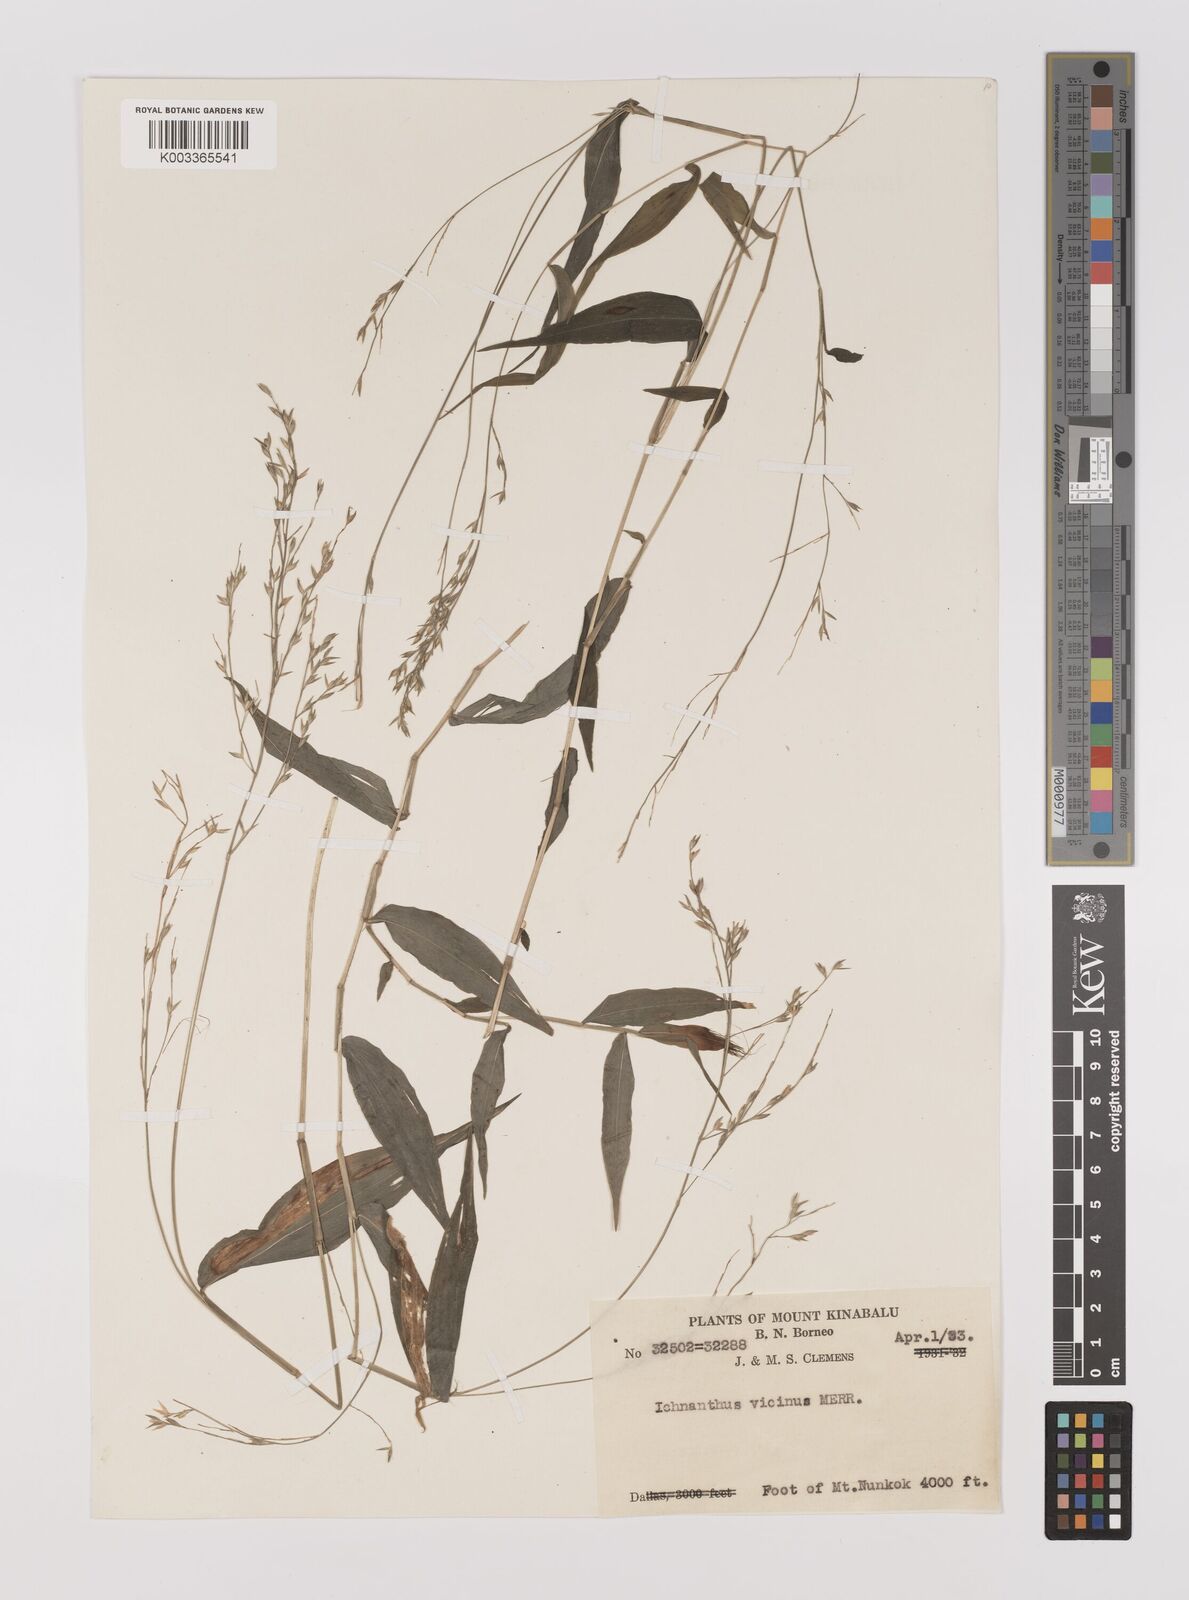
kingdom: Plantae
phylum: Tracheophyta
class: Liliopsida
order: Poales
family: Poaceae
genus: Ichnanthus
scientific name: Ichnanthus pallens
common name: Water grass
